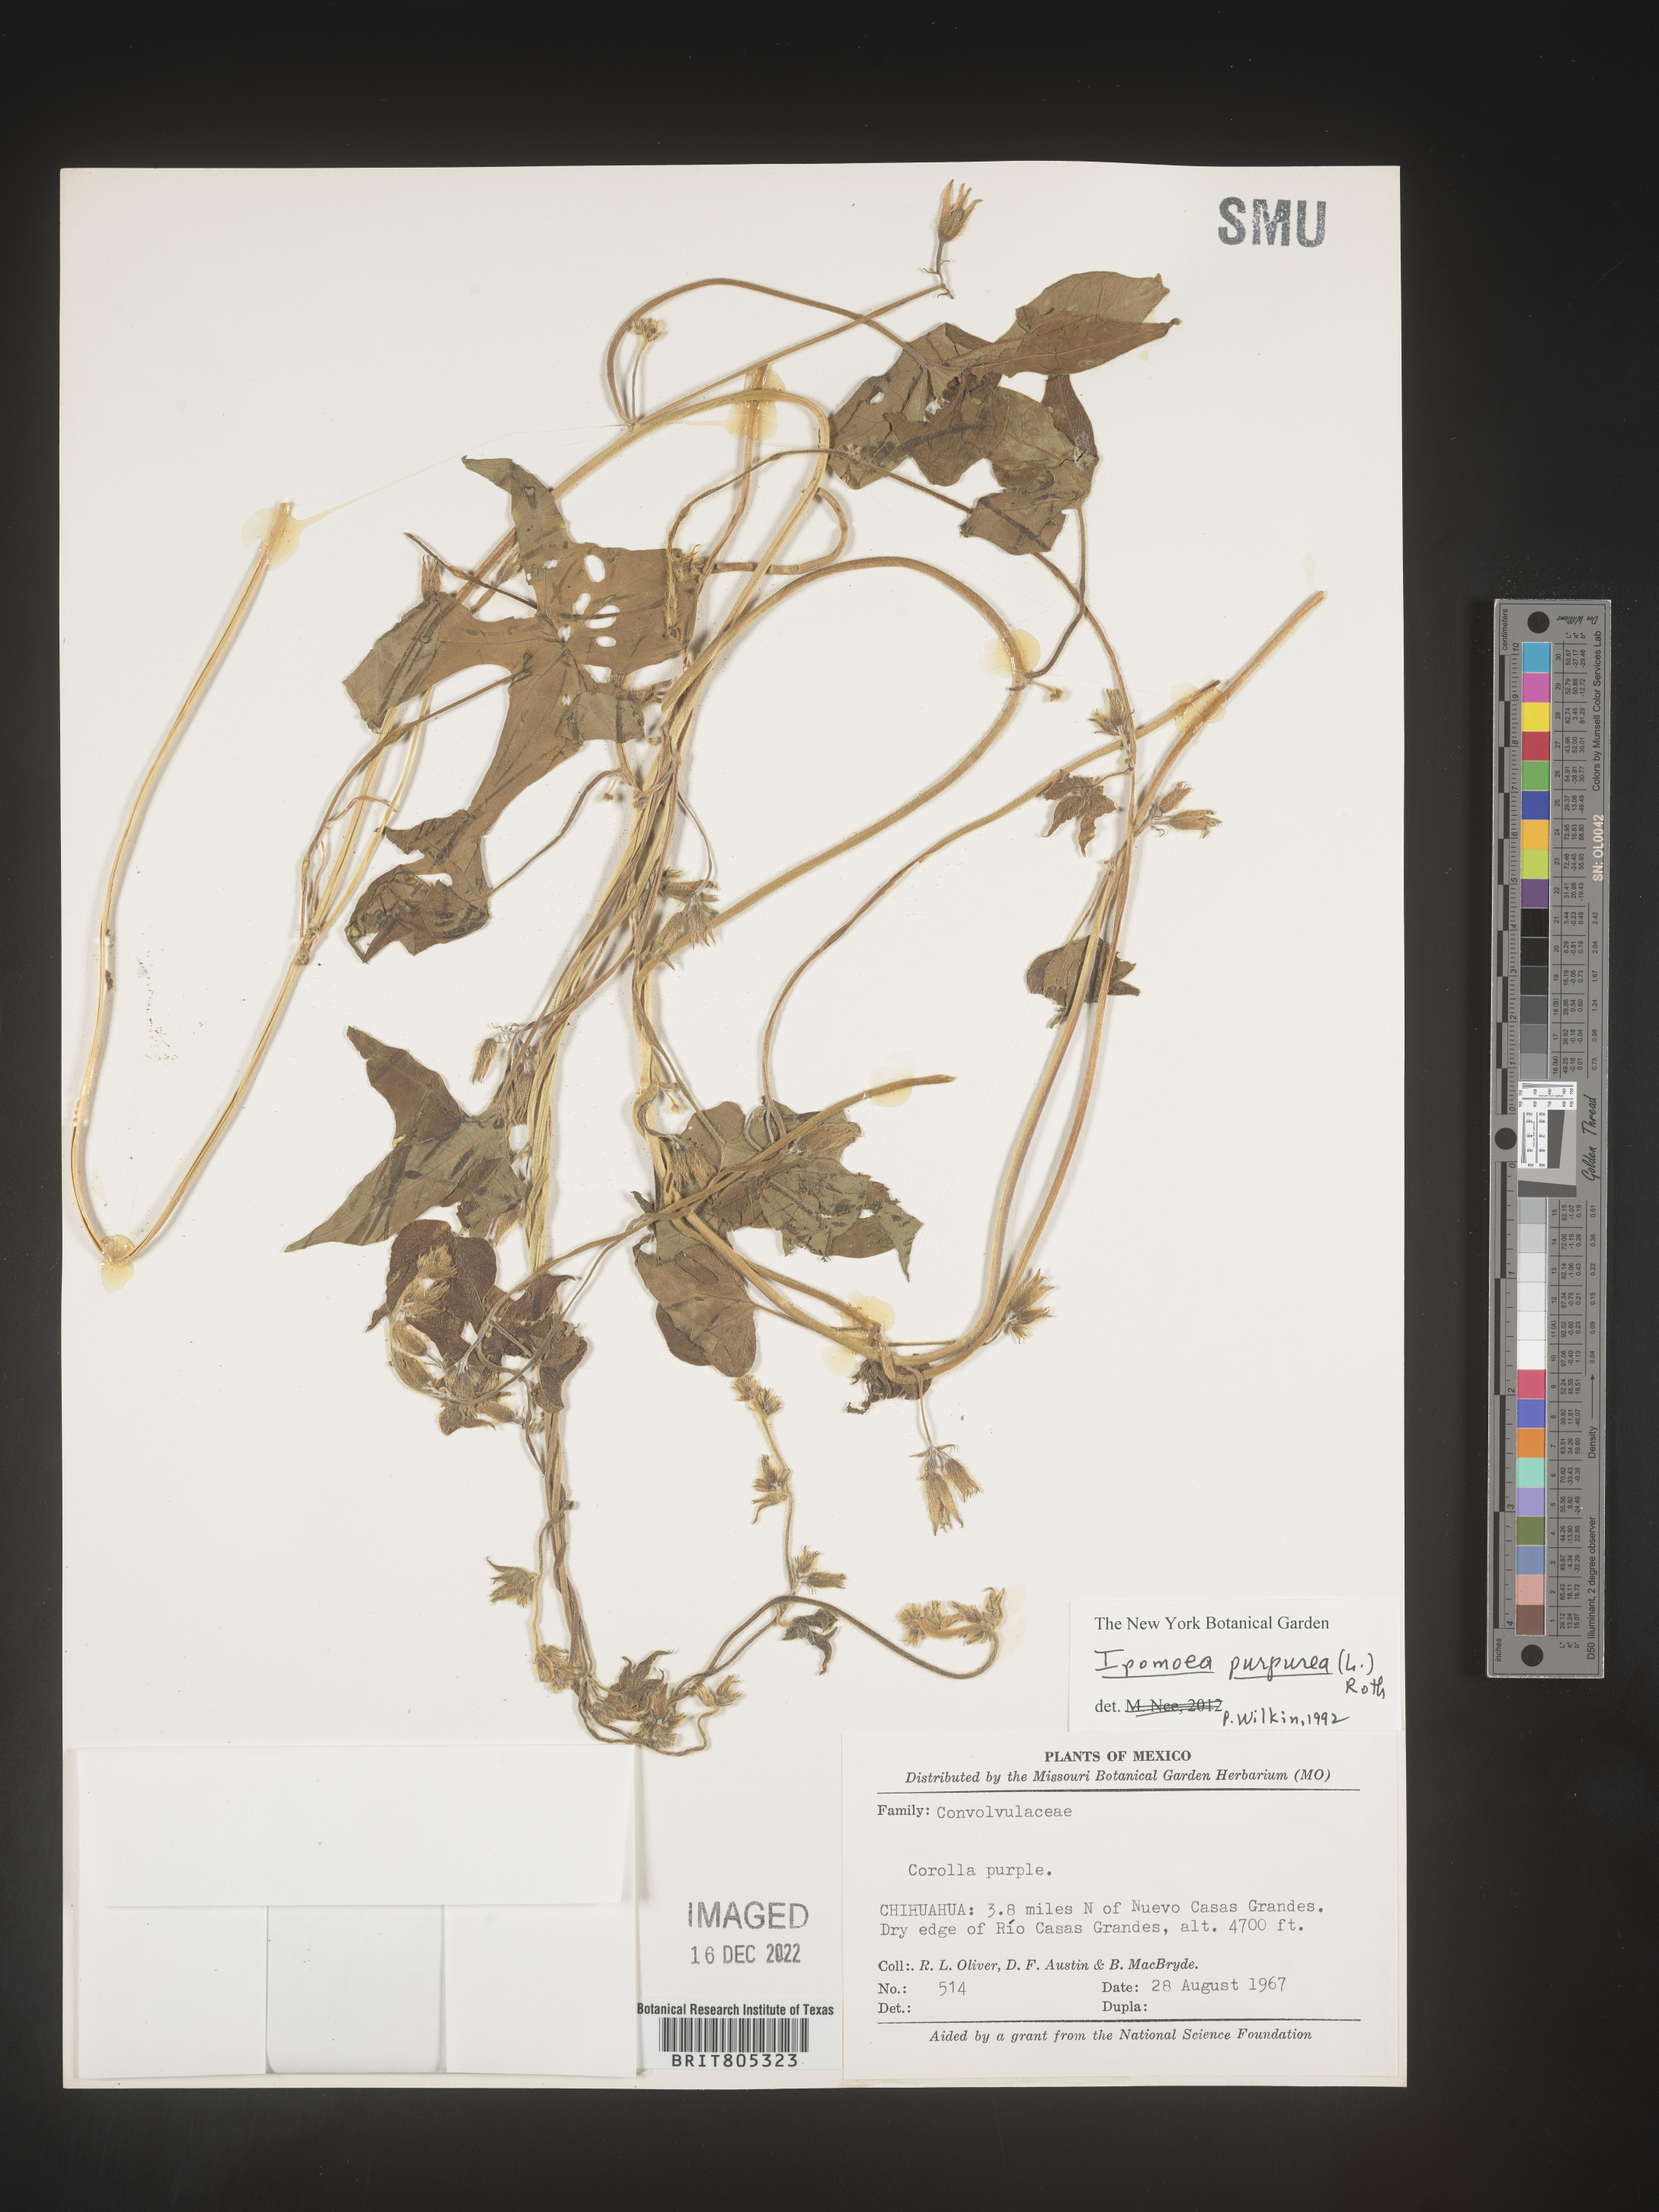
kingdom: Plantae
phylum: Tracheophyta
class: Magnoliopsida
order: Solanales
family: Convolvulaceae
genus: Ipomoea
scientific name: Ipomoea
